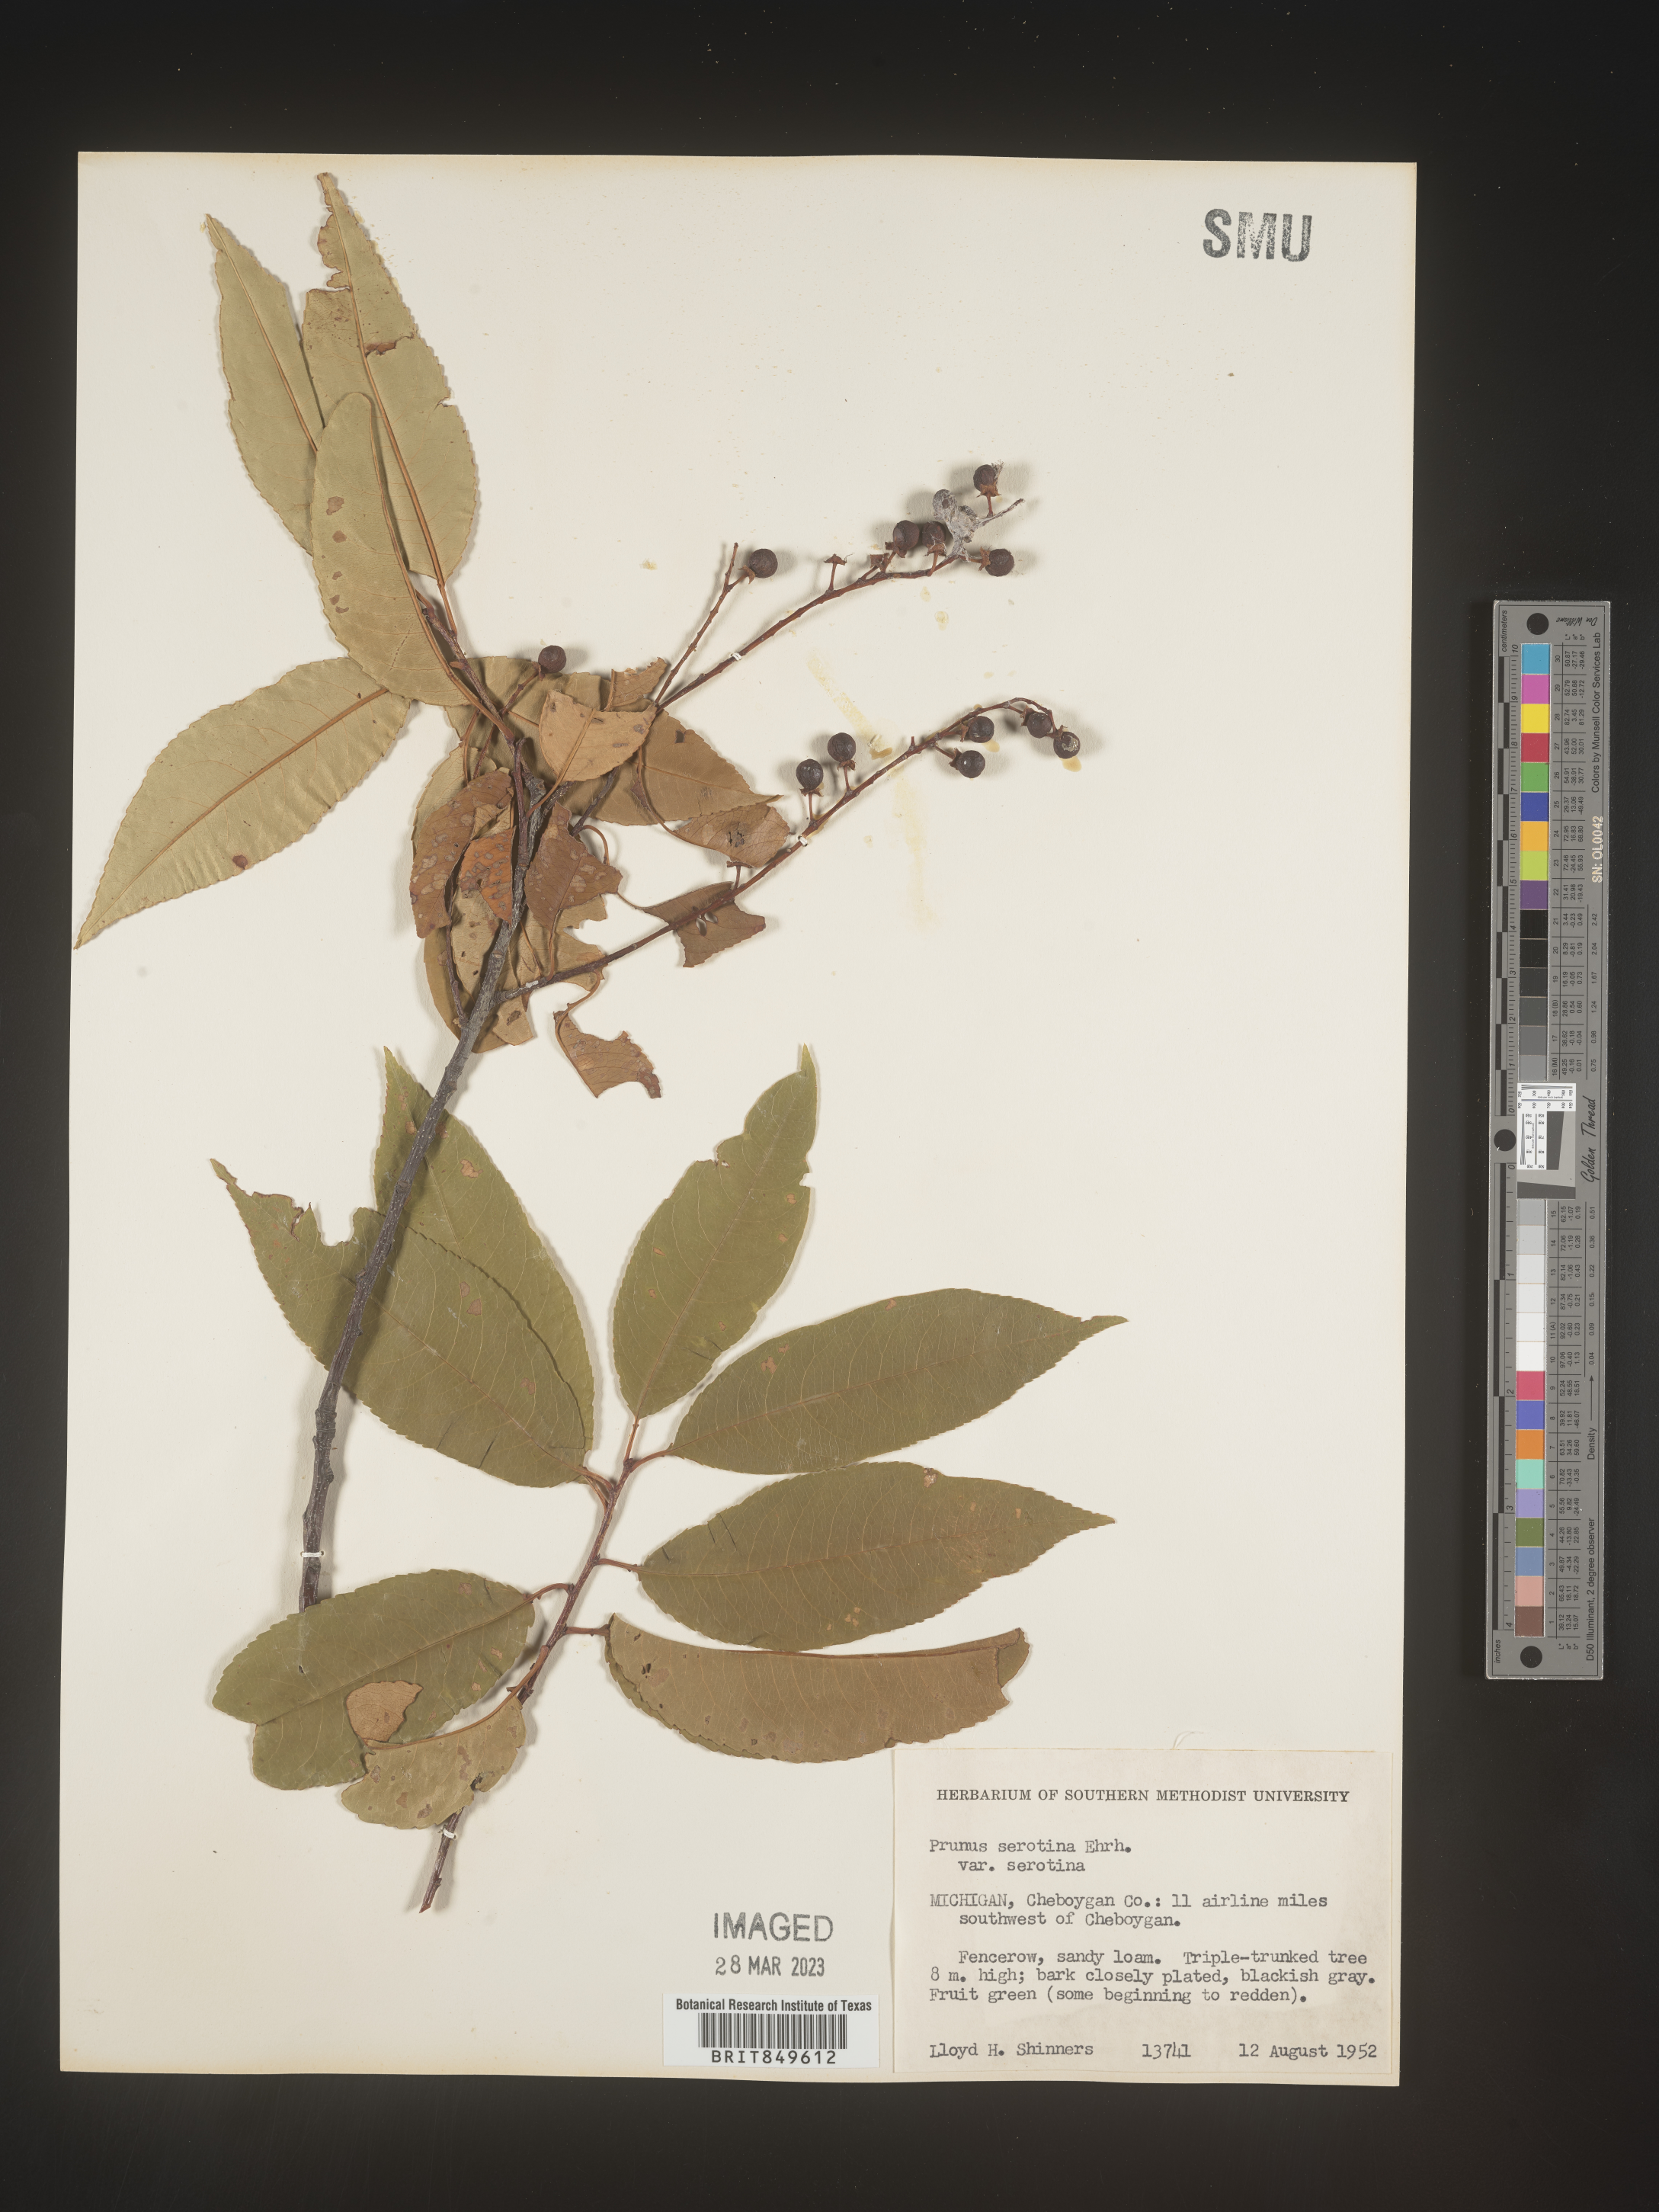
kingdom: Plantae
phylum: Tracheophyta
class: Magnoliopsida
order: Rosales
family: Rosaceae
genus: Prunus
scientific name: Prunus serotina
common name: Black cherry
